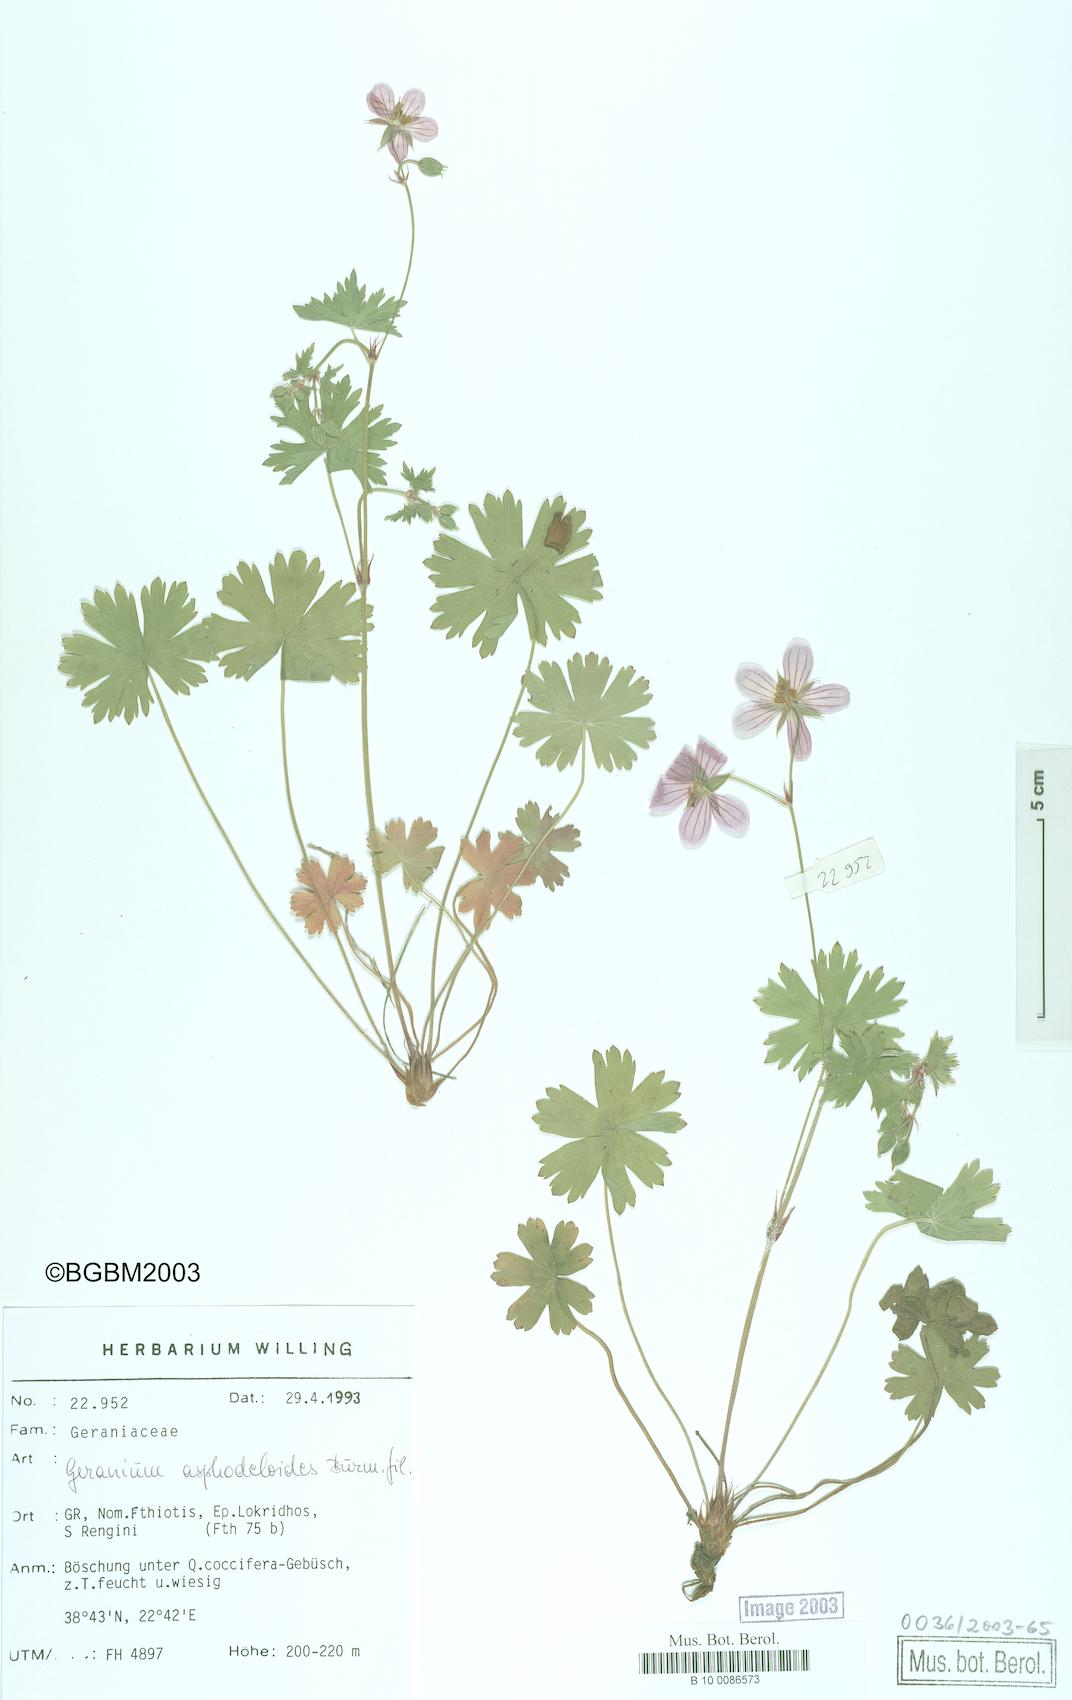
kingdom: Plantae
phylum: Tracheophyta
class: Magnoliopsida
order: Geraniales
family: Geraniaceae
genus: Geranium
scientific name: Geranium asphodeloides
